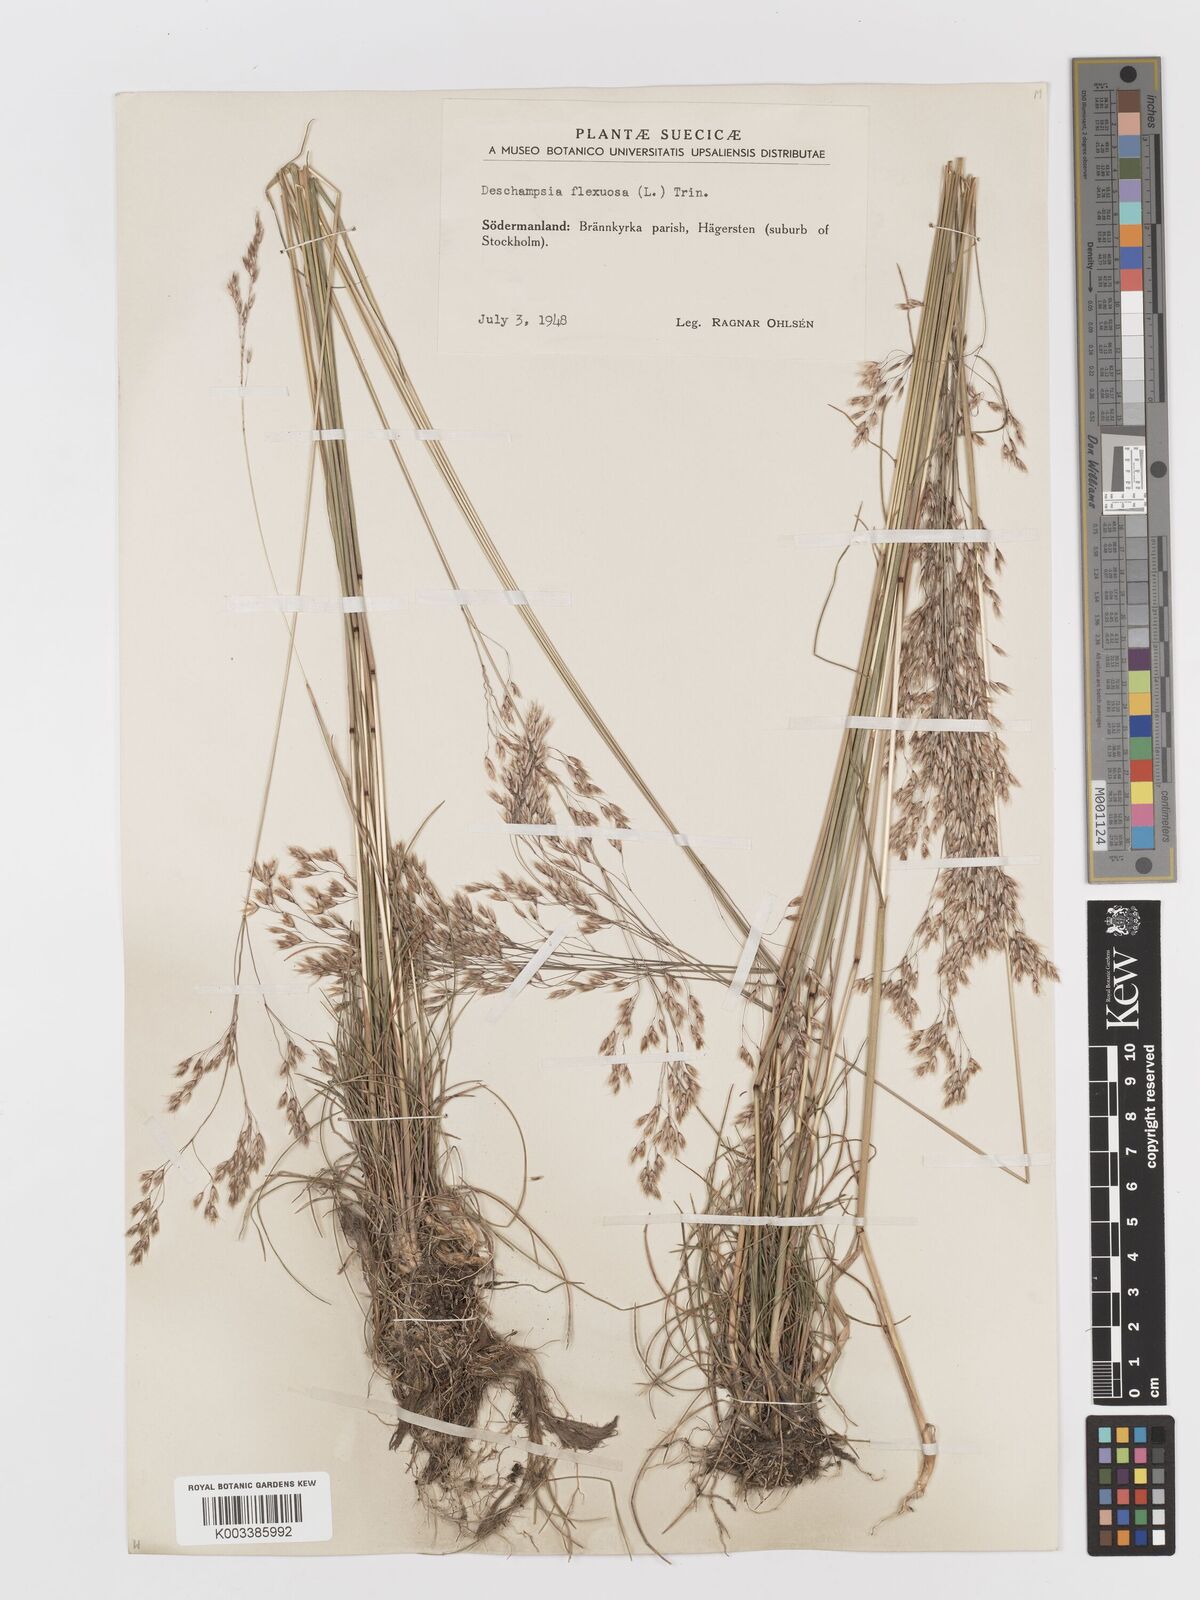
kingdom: Plantae
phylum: Tracheophyta
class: Liliopsida
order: Poales
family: Poaceae
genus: Avenella
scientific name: Avenella flexuosa
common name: Wavy hairgrass
